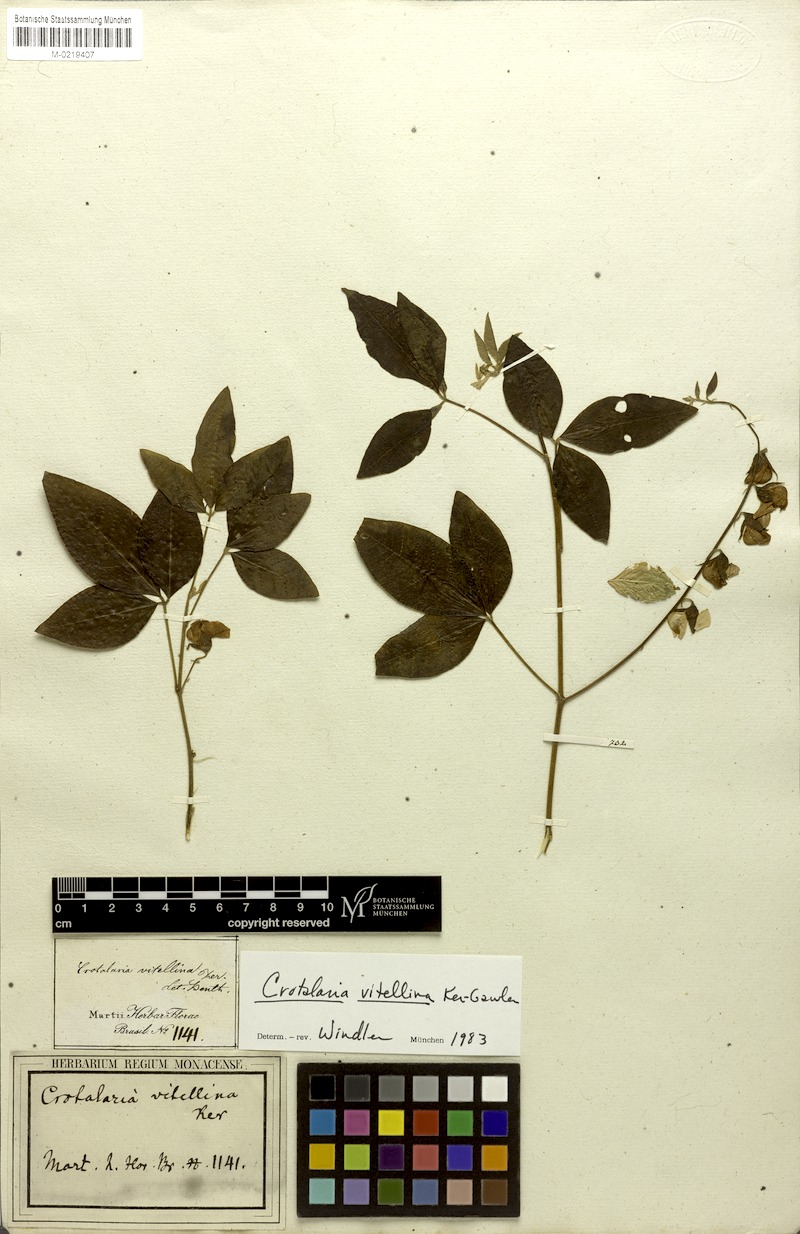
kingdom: Plantae
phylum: Tracheophyta
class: Magnoliopsida
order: Fabales
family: Fabaceae
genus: Crotalaria
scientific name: Crotalaria vitellina
